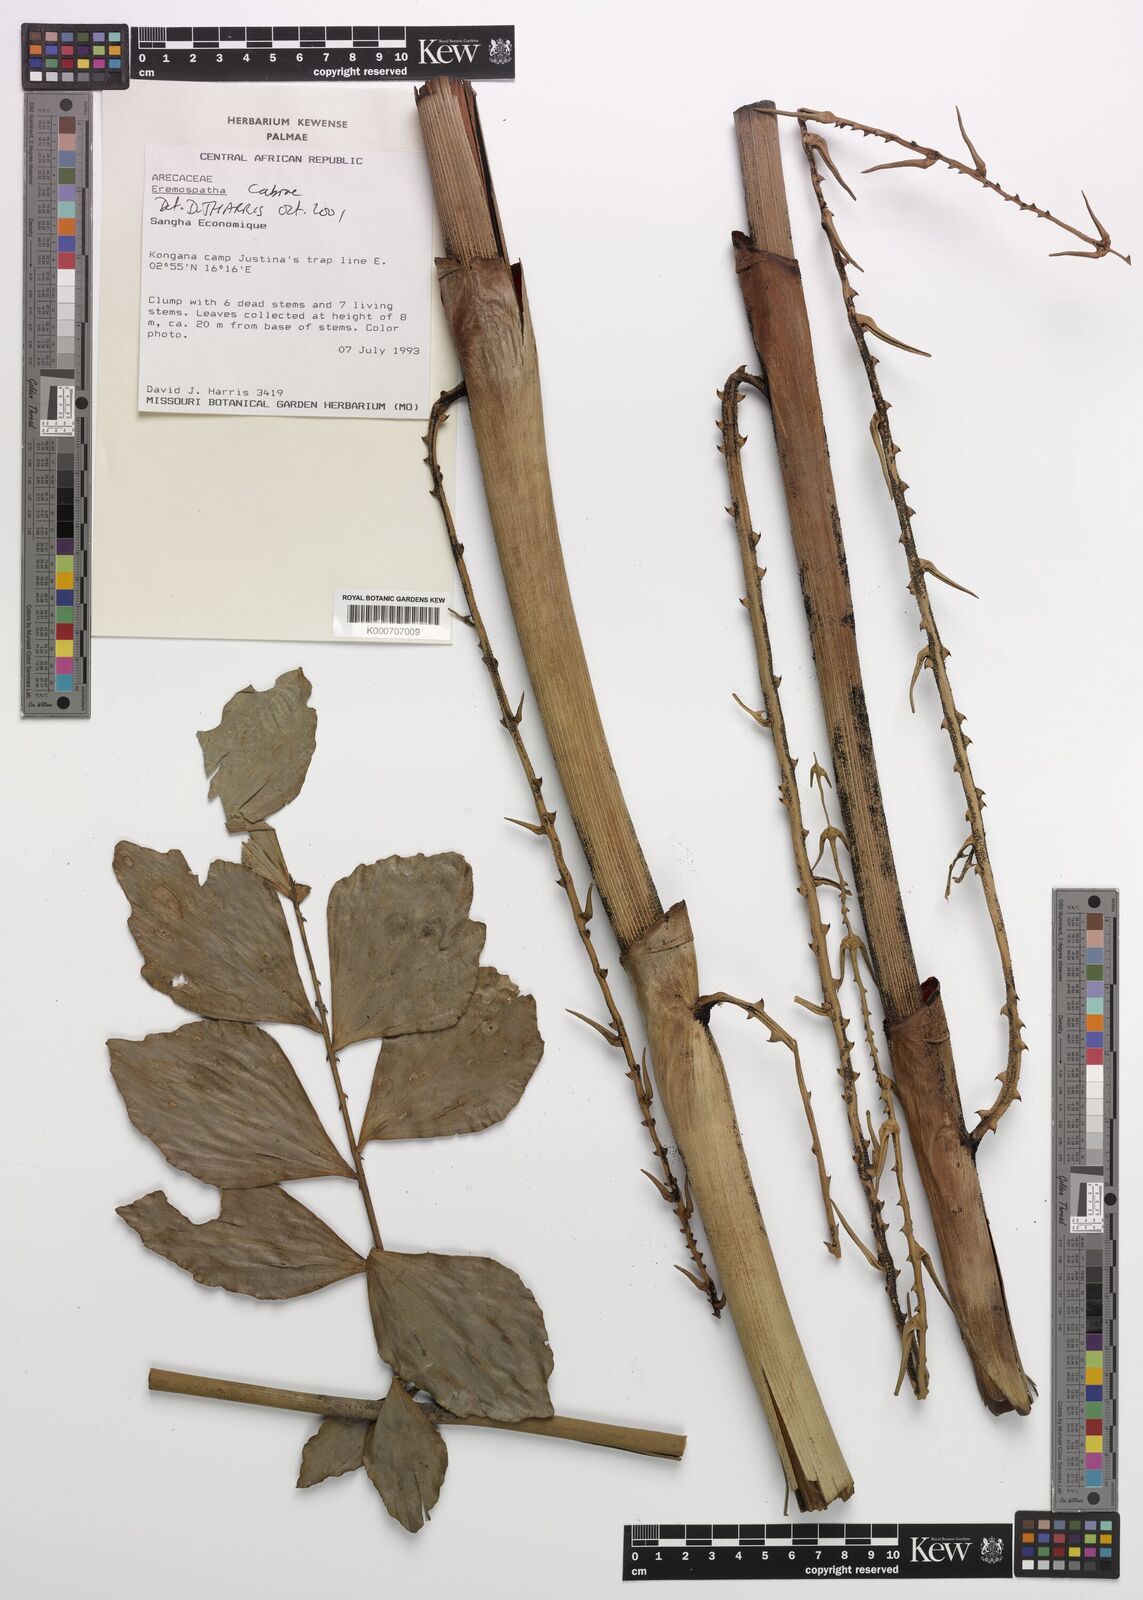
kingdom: Plantae
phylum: Tracheophyta
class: Liliopsida
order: Arecales
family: Arecaceae
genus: Eremospatha
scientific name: Eremospatha cabrae
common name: Rattan
